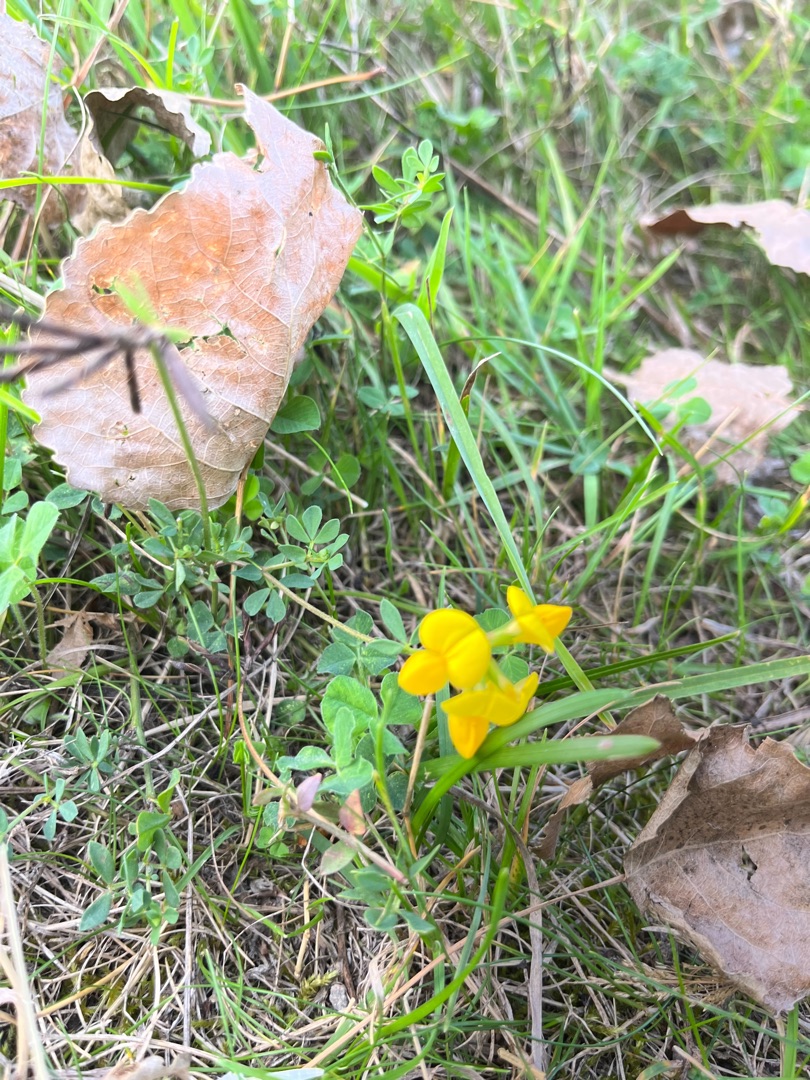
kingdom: Plantae
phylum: Tracheophyta
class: Magnoliopsida
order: Fabales
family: Fabaceae
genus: Lotus
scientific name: Lotus corniculatus
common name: Almindelig kællingetand
